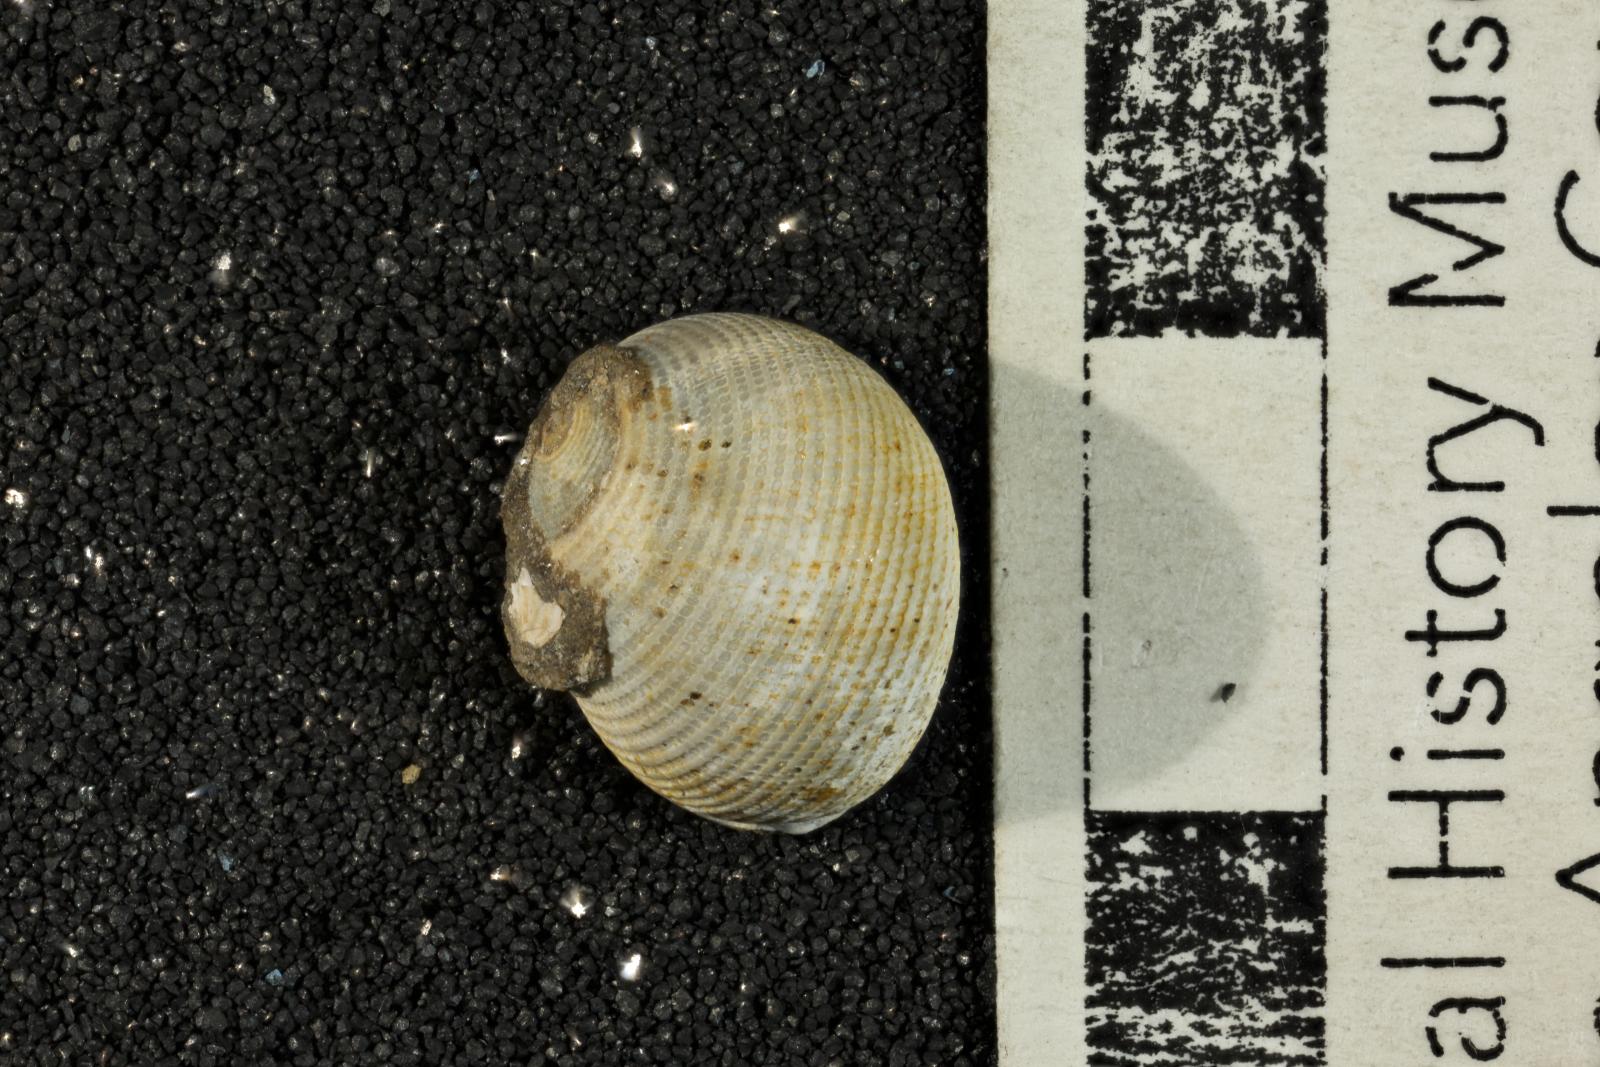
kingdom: Animalia
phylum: Mollusca
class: Gastropoda
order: Cephalaspidea
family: Ringiculidae
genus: Biplica
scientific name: Biplica obliqua
